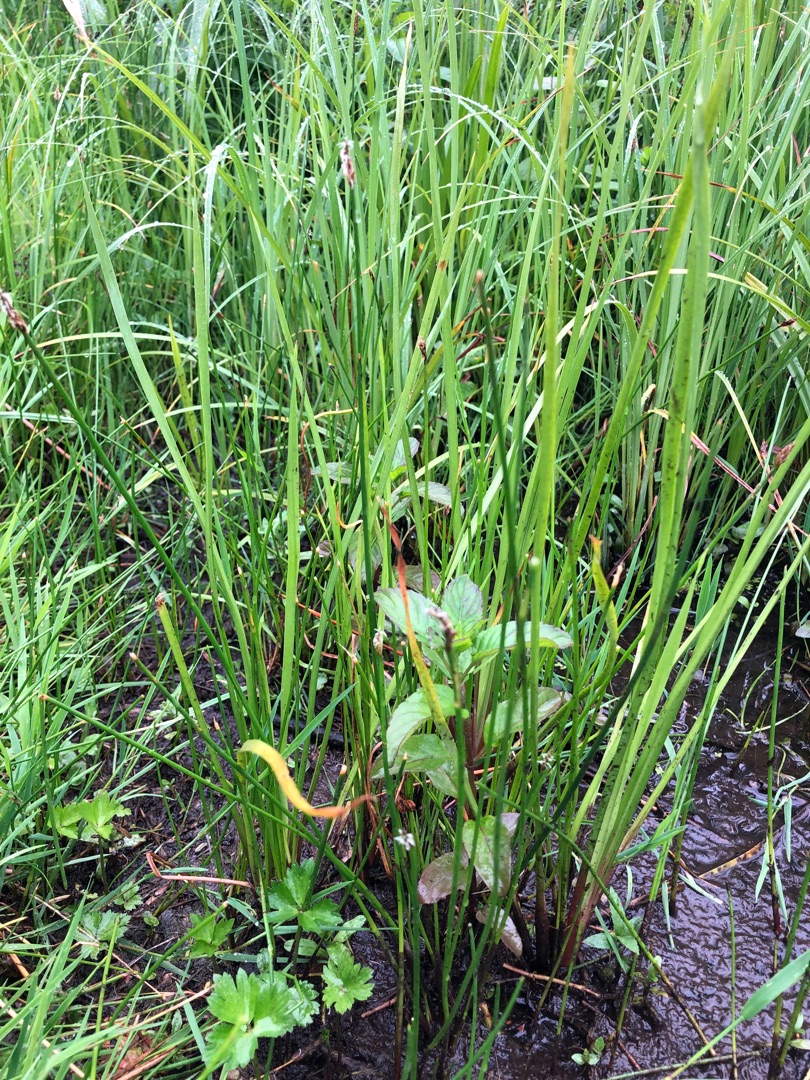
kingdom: Plantae
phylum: Tracheophyta
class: Liliopsida
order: Poales
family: Cyperaceae
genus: Eleocharis
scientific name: Eleocharis palustris
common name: Almindelig sumpstrå
